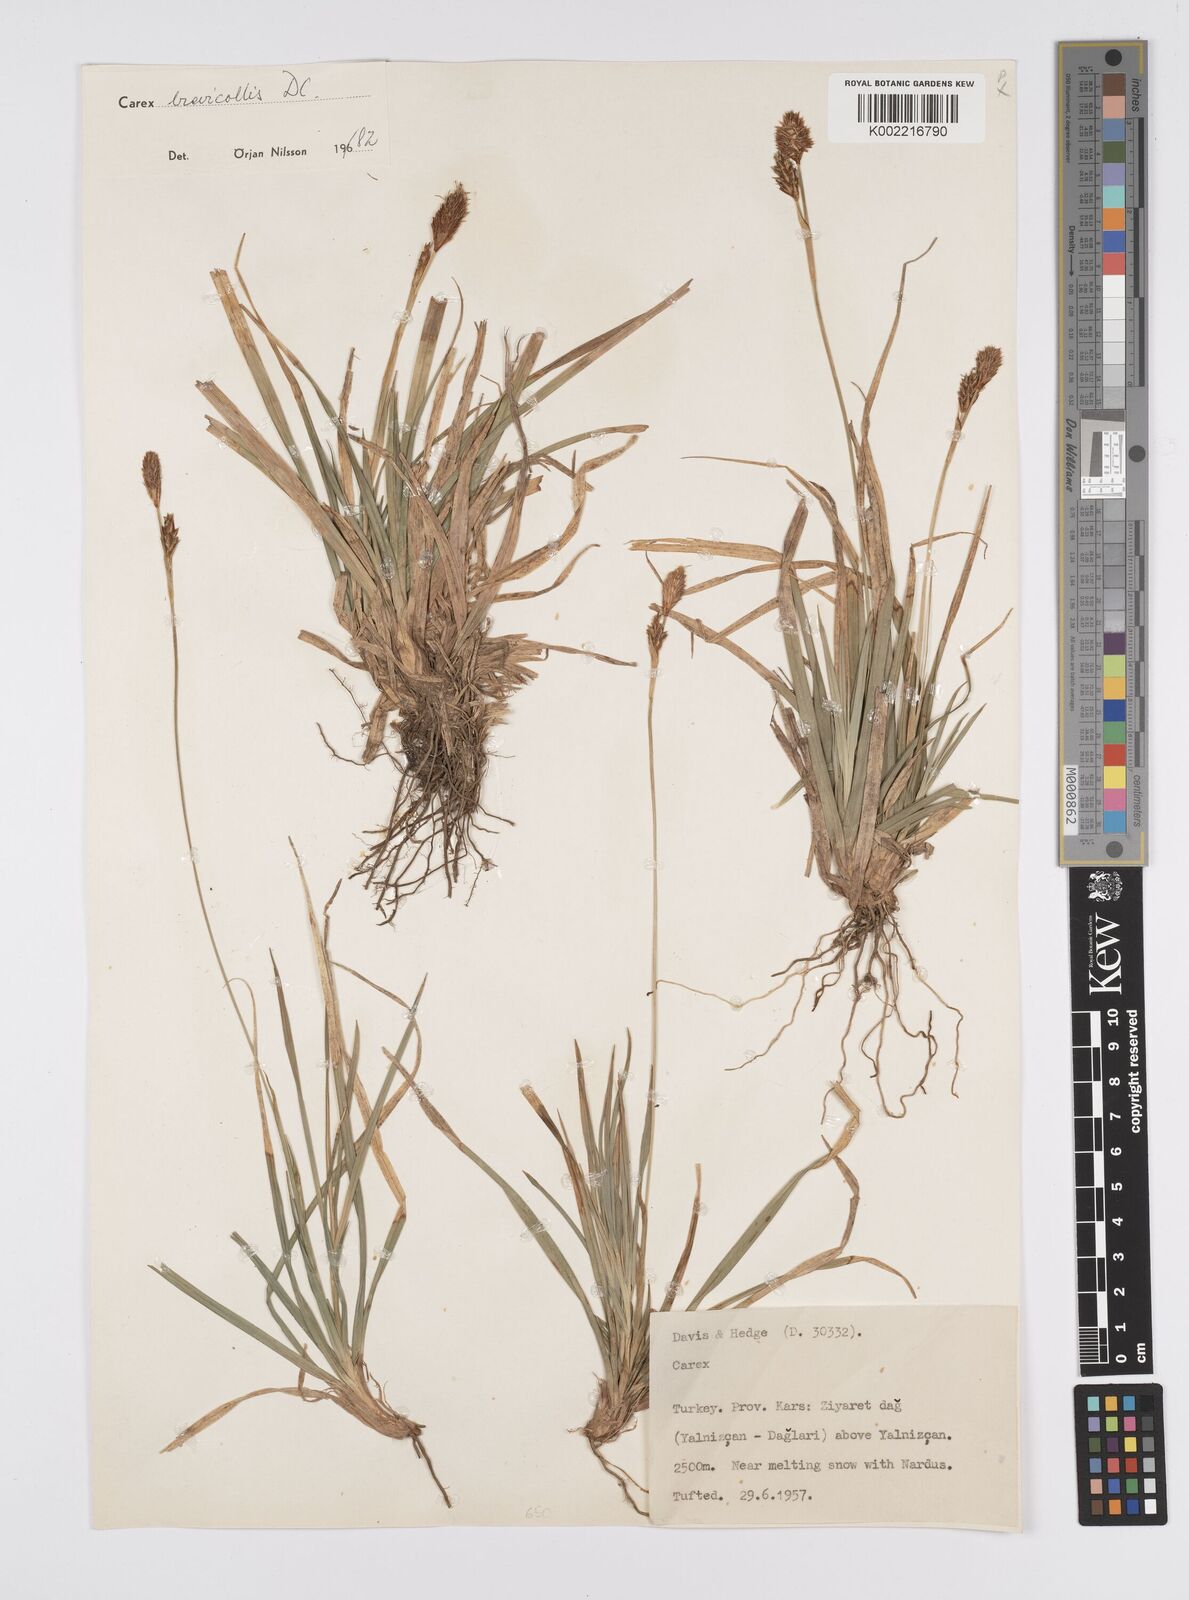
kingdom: Plantae
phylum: Tracheophyta
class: Liliopsida
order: Poales
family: Cyperaceae
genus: Carex
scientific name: Carex brevicollis
